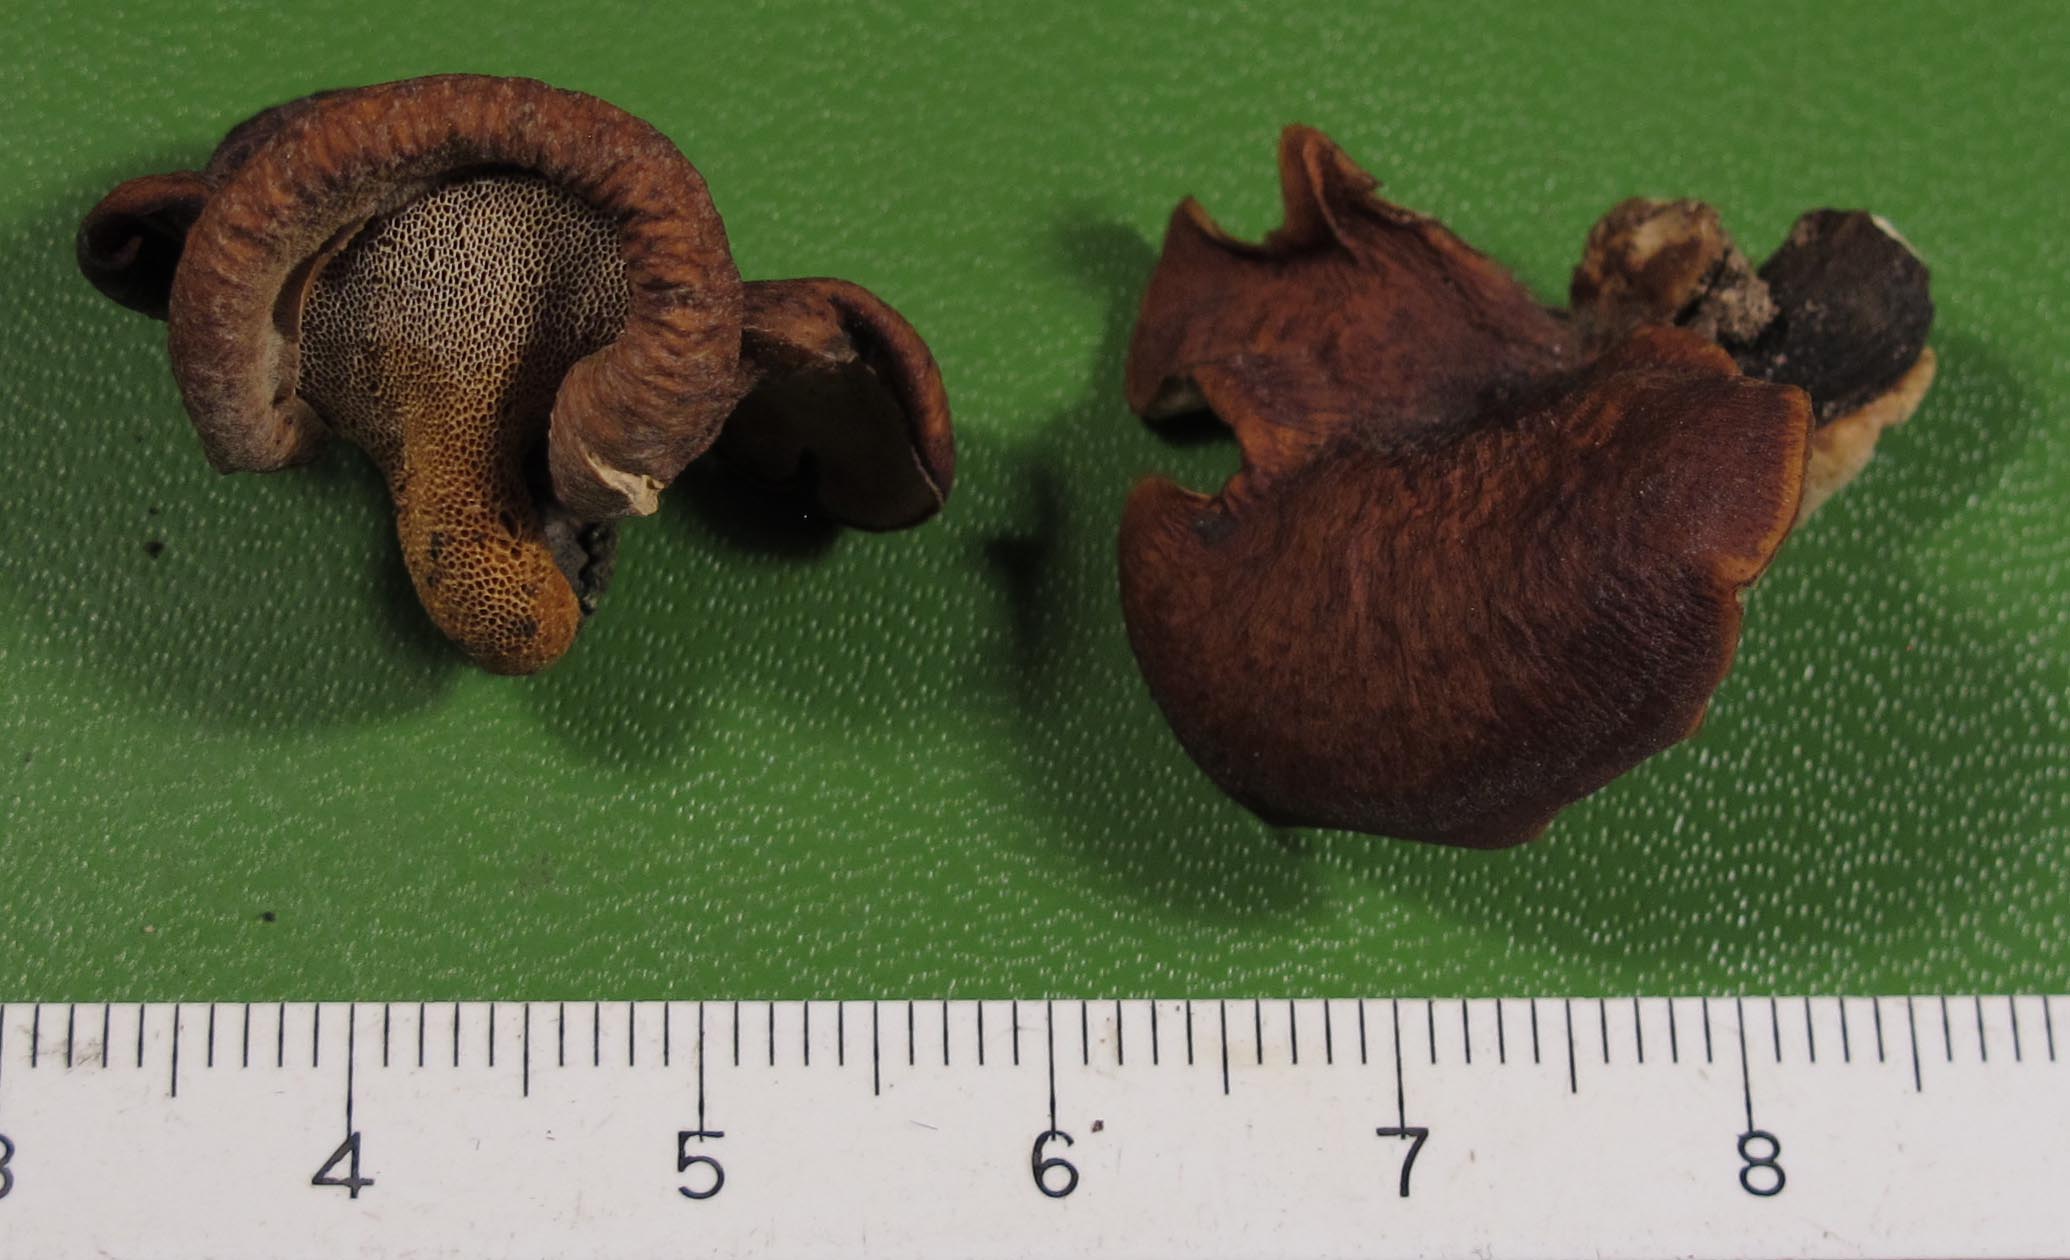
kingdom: Fungi
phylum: Basidiomycota
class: Agaricomycetes
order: Polyporales
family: Polyporaceae
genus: Picipes
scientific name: Picipes tubaeformis
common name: trompet-stilkporesvamp
